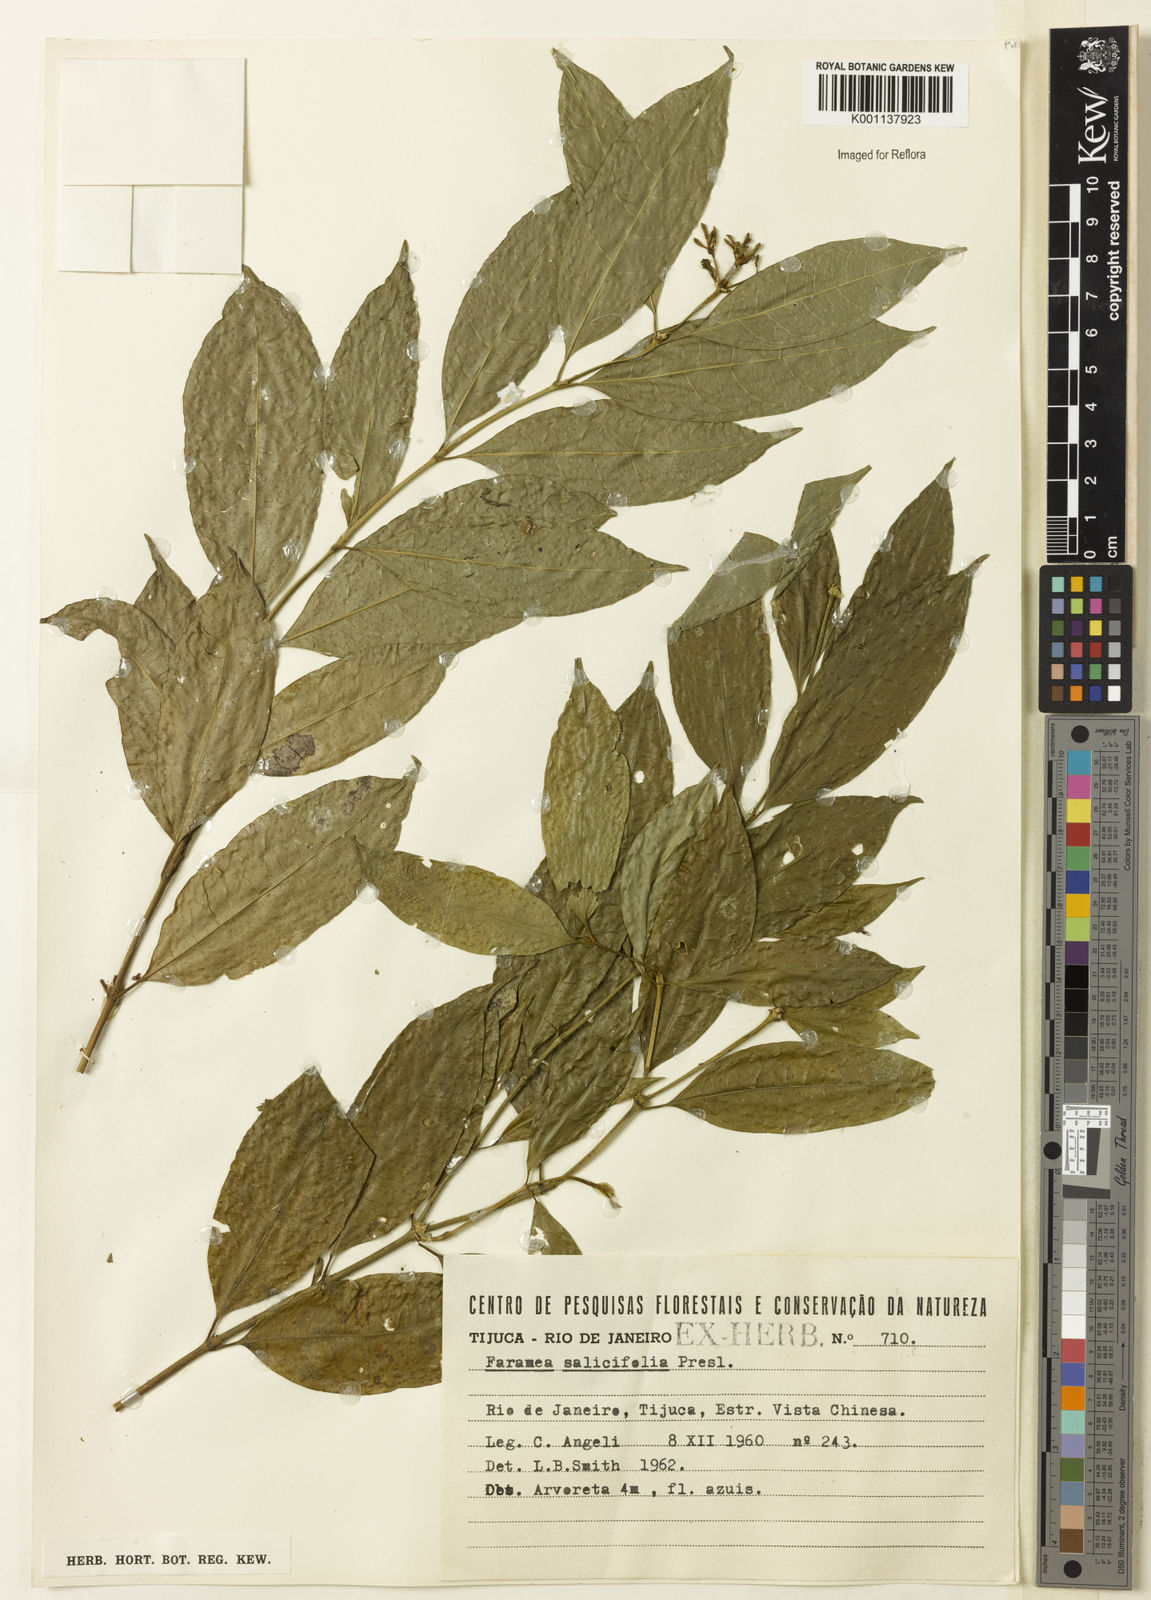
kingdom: Plantae
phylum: Tracheophyta
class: Magnoliopsida
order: Gentianales
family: Rubiaceae
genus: Faramea
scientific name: Faramea multiflora
